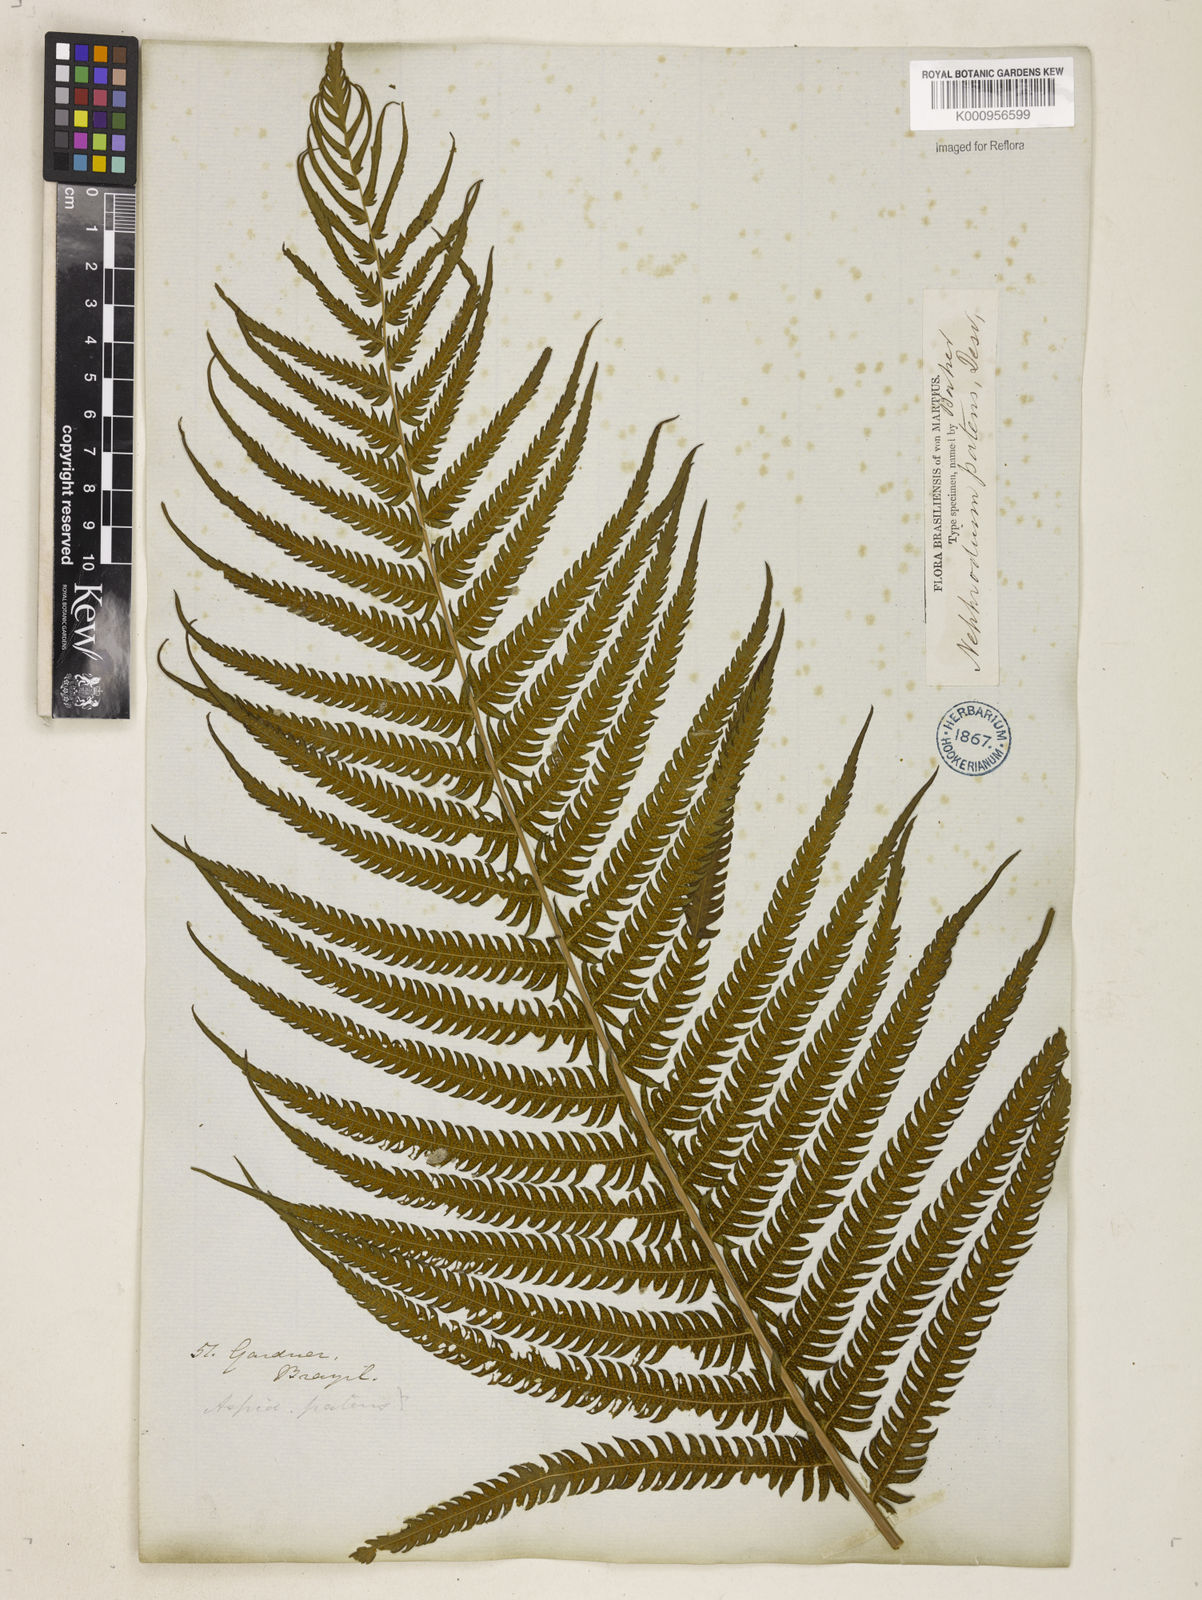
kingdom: Plantae
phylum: Tracheophyta
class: Polypodiopsida
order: Polypodiales
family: Thelypteridaceae
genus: Pelazoneuron
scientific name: Pelazoneuron patens
